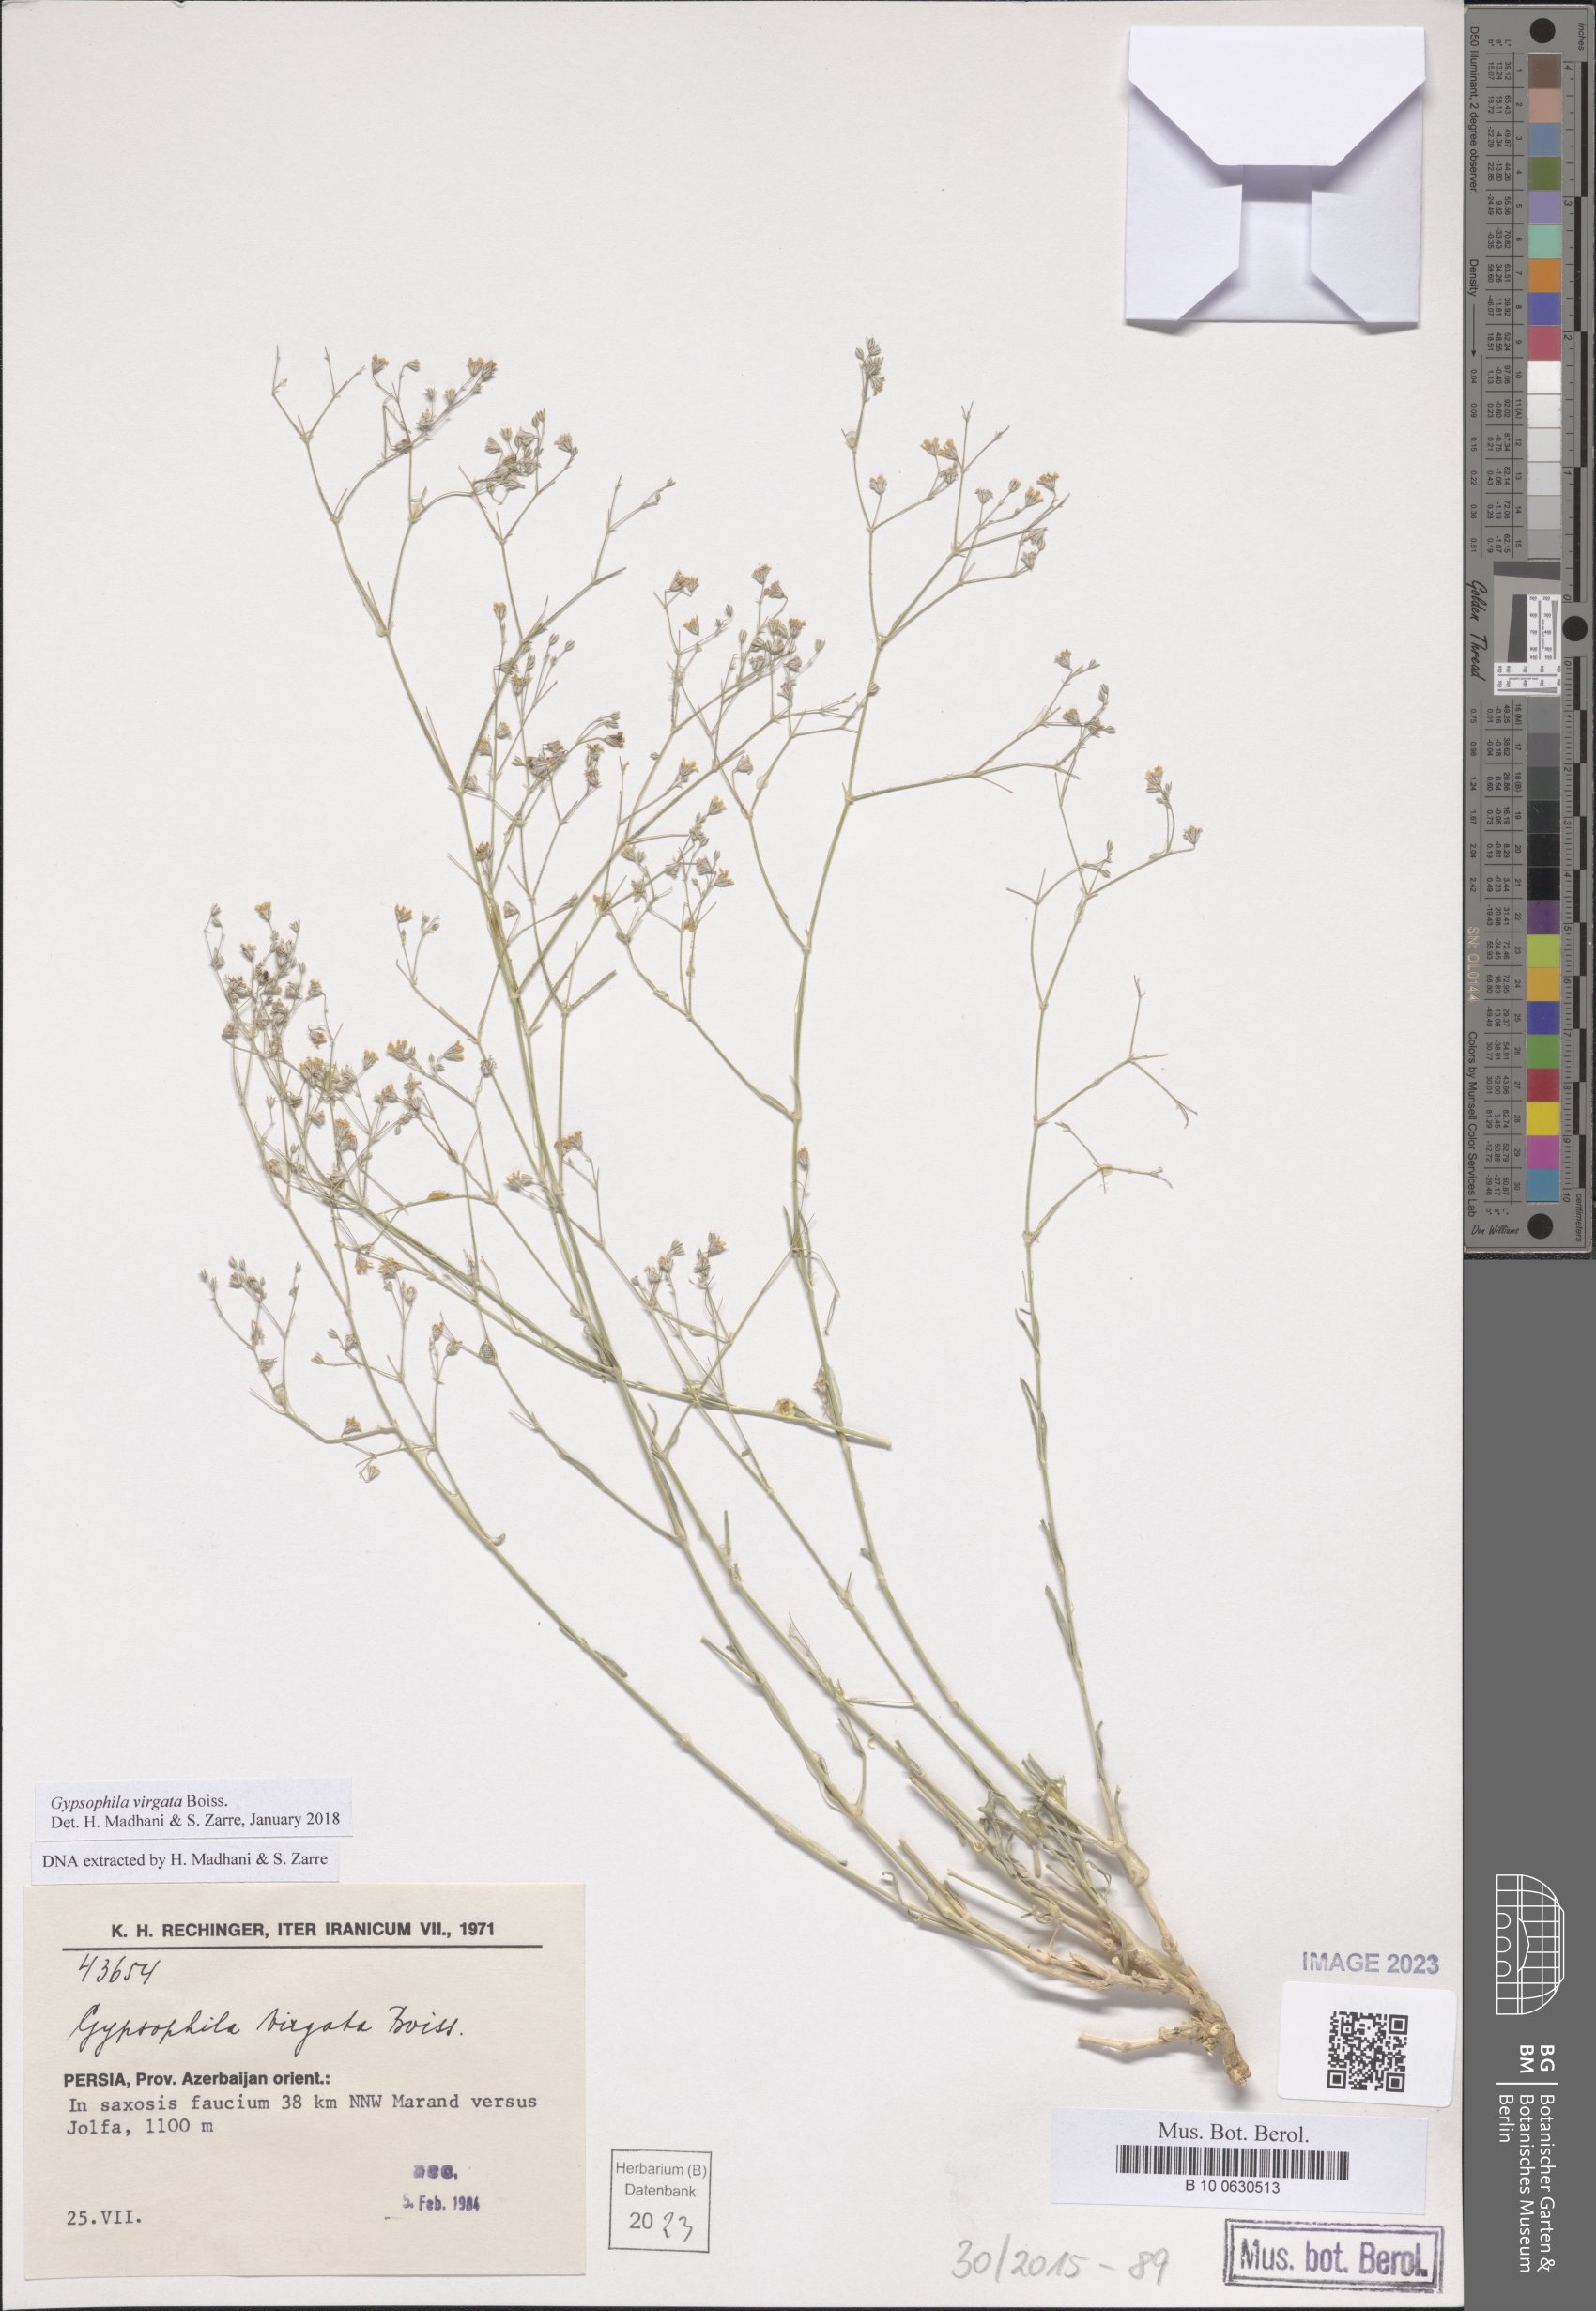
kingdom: Plantae
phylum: Tracheophyta
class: Magnoliopsida
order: Caryophyllales
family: Caryophyllaceae
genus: Gypsophila
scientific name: Gypsophila virgata
